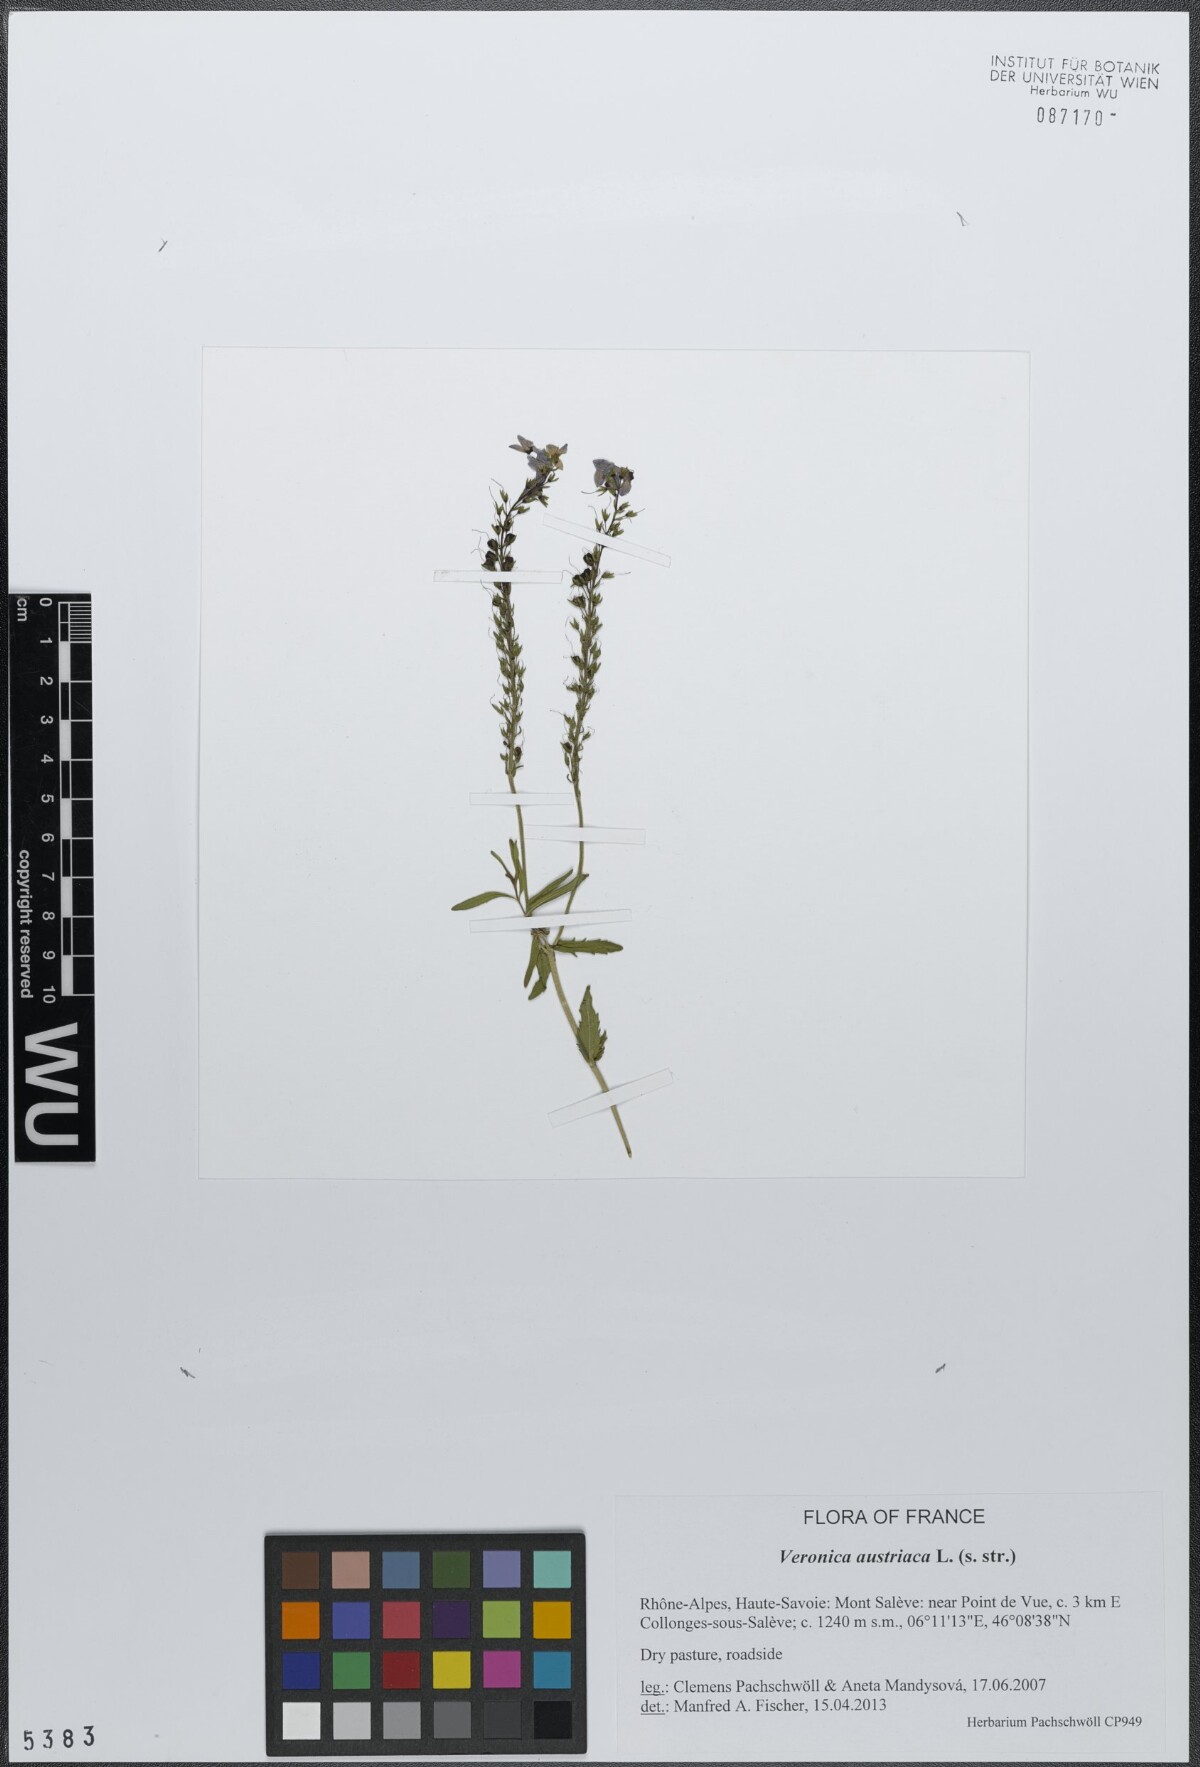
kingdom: Plantae
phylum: Tracheophyta
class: Magnoliopsida
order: Lamiales
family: Plantaginaceae
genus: Veronica
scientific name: Veronica austriaca
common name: Large speedwell
